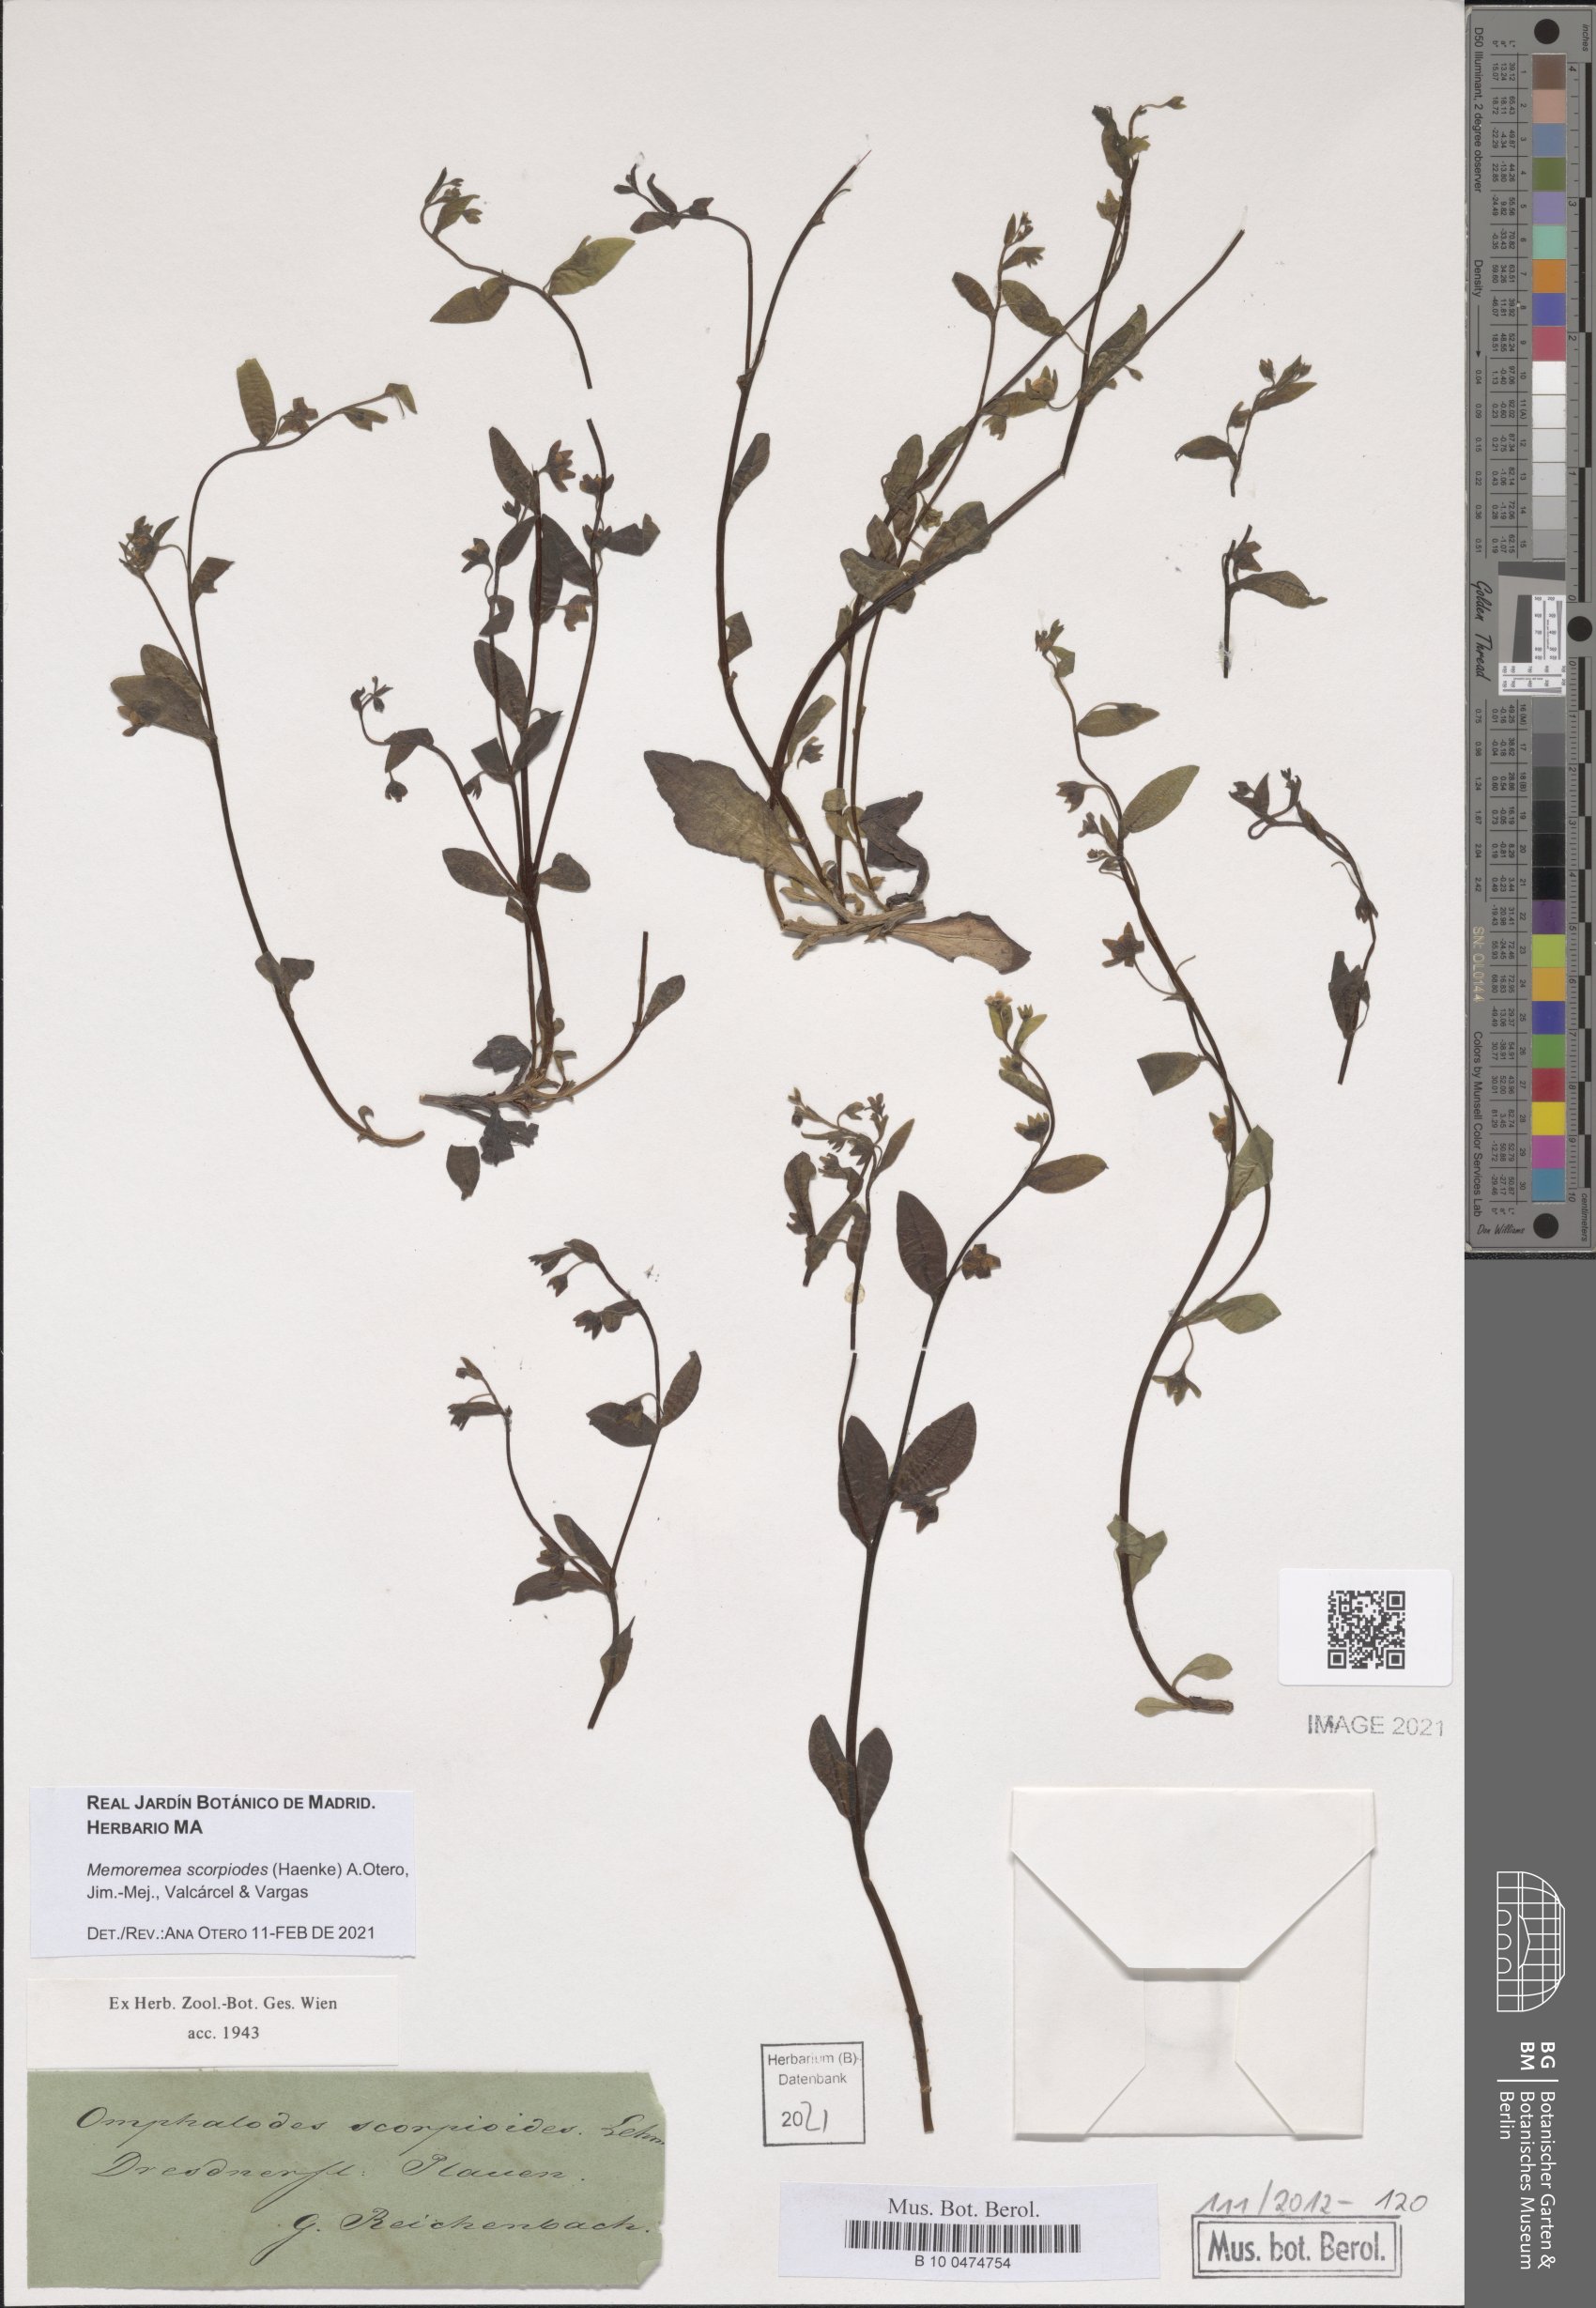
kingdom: Plantae
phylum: Tracheophyta
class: Magnoliopsida
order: Boraginales
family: Boraginaceae
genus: Memoremea
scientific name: Memoremea scorpioides
